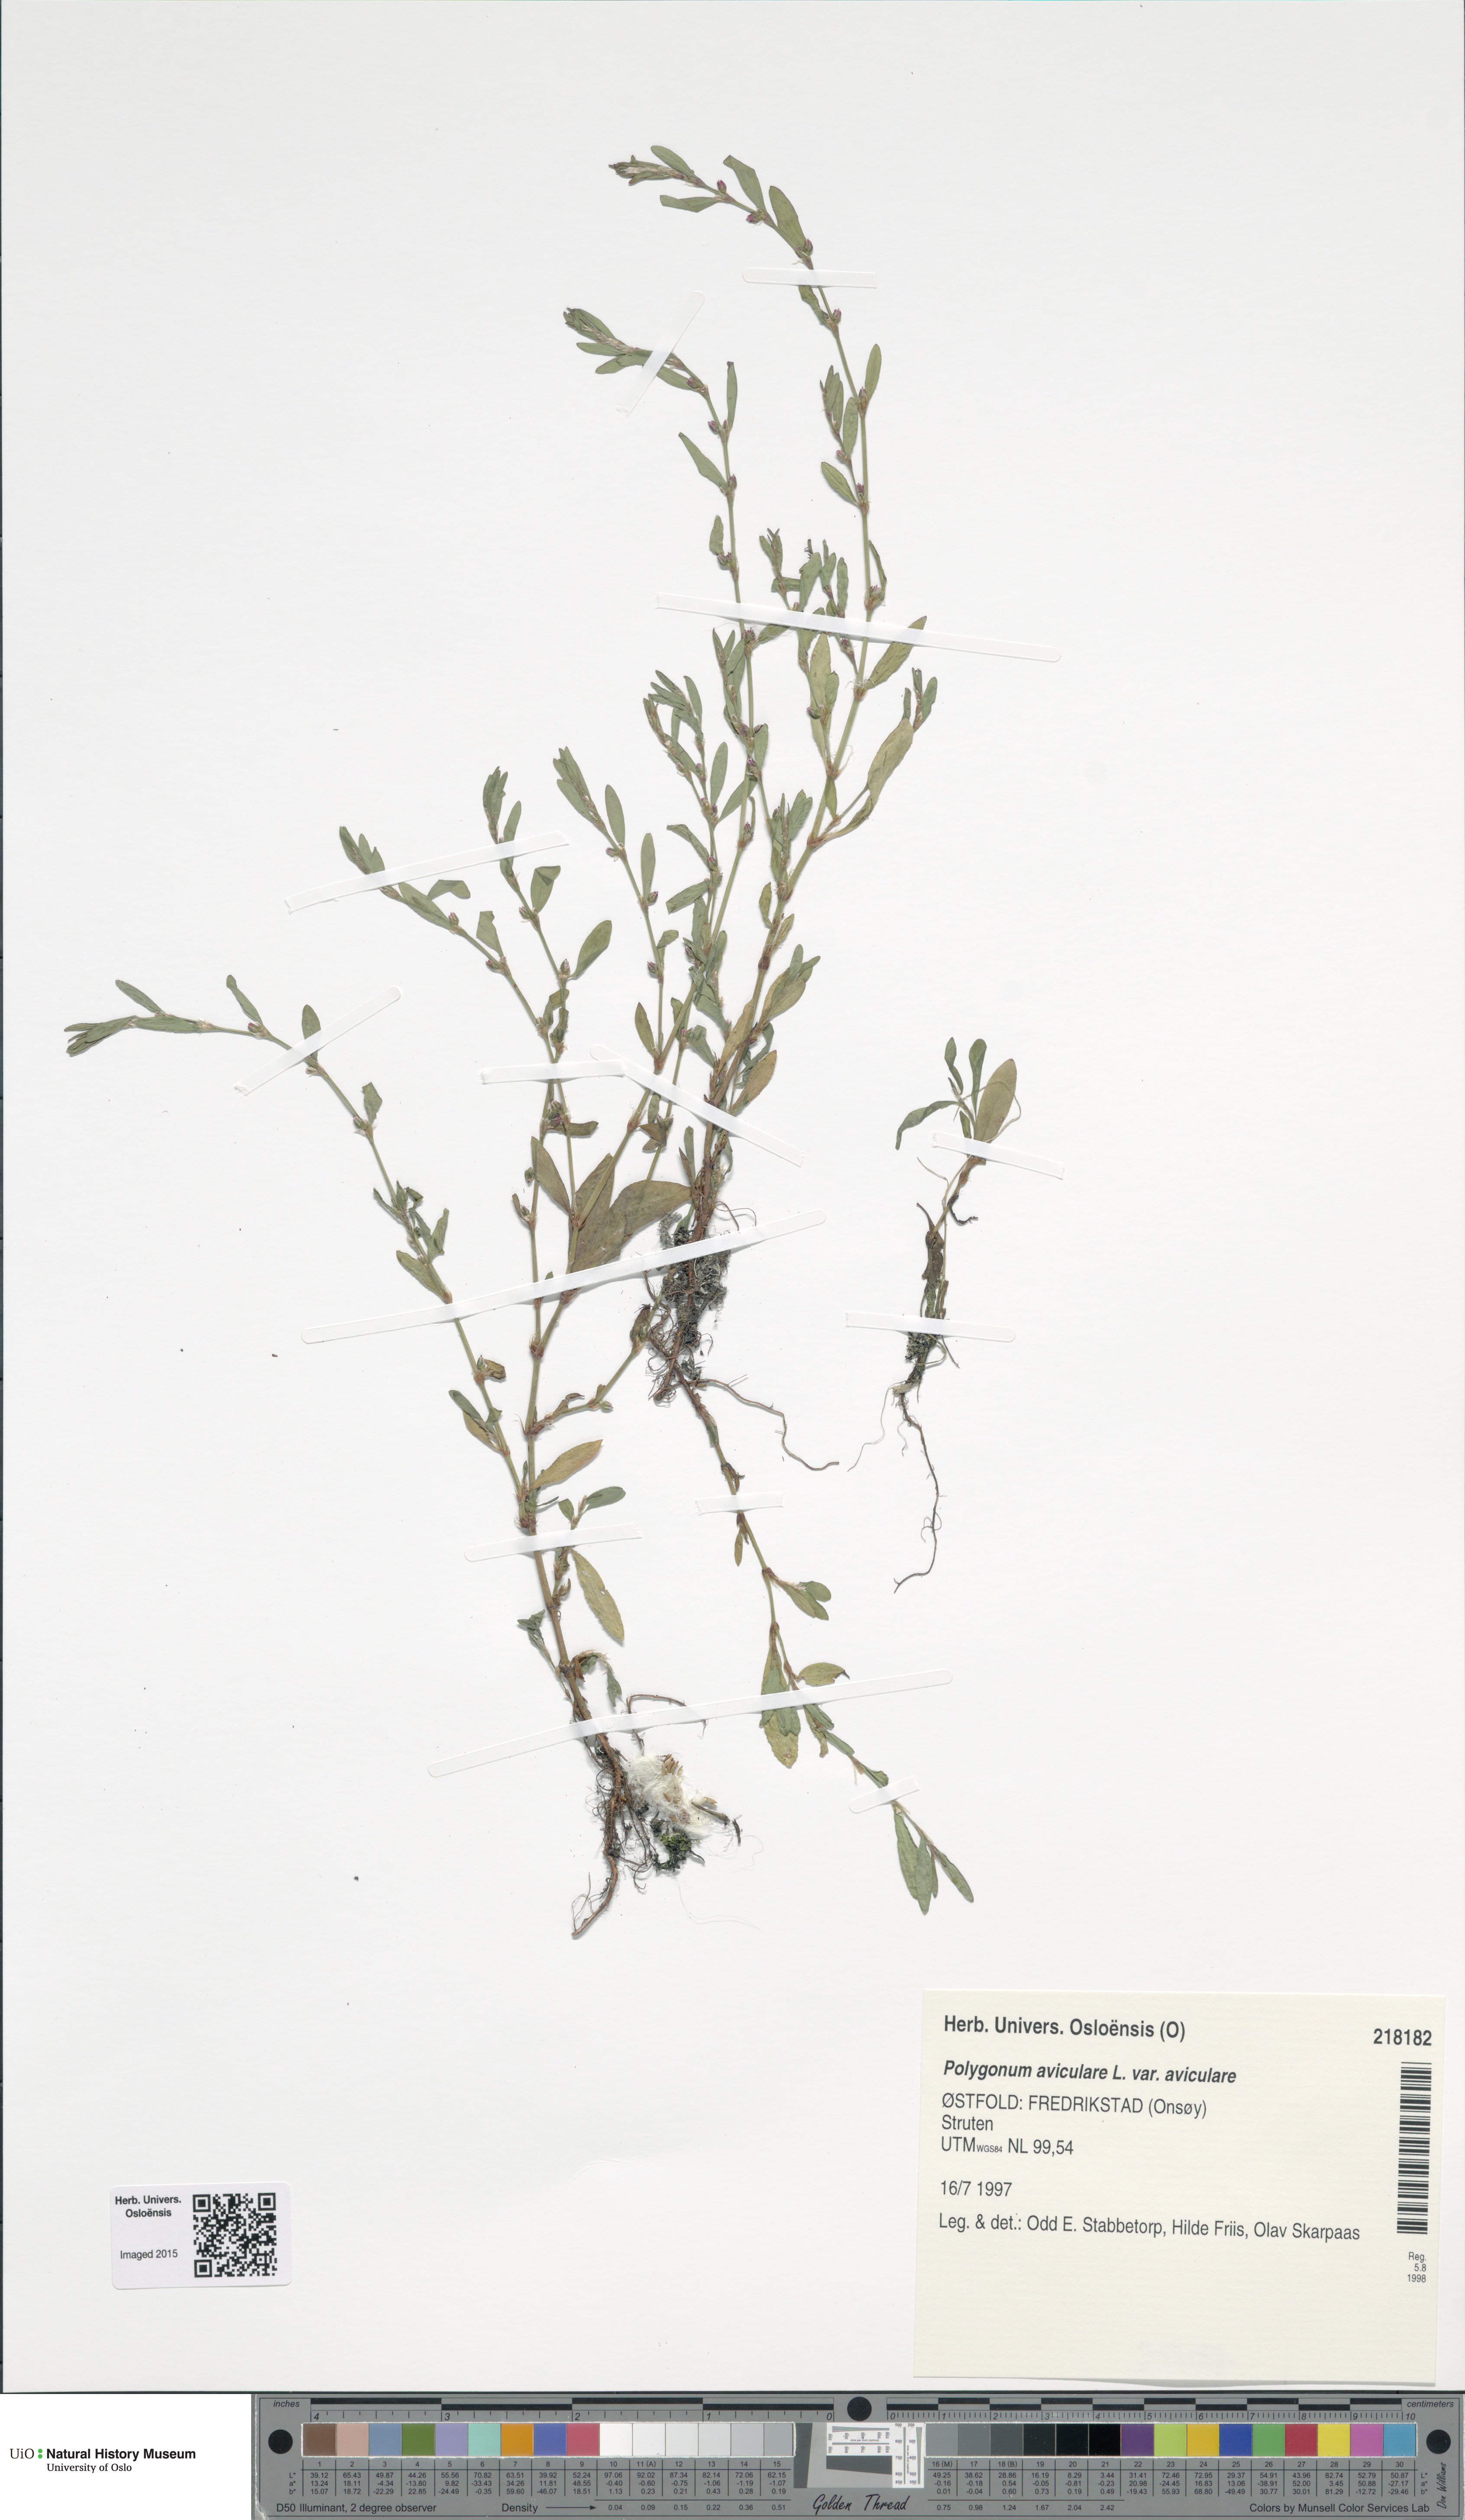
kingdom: Plantae
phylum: Tracheophyta
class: Magnoliopsida
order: Caryophyllales
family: Polygonaceae
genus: Polygonum
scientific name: Polygonum aviculare
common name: Prostrate knotweed
